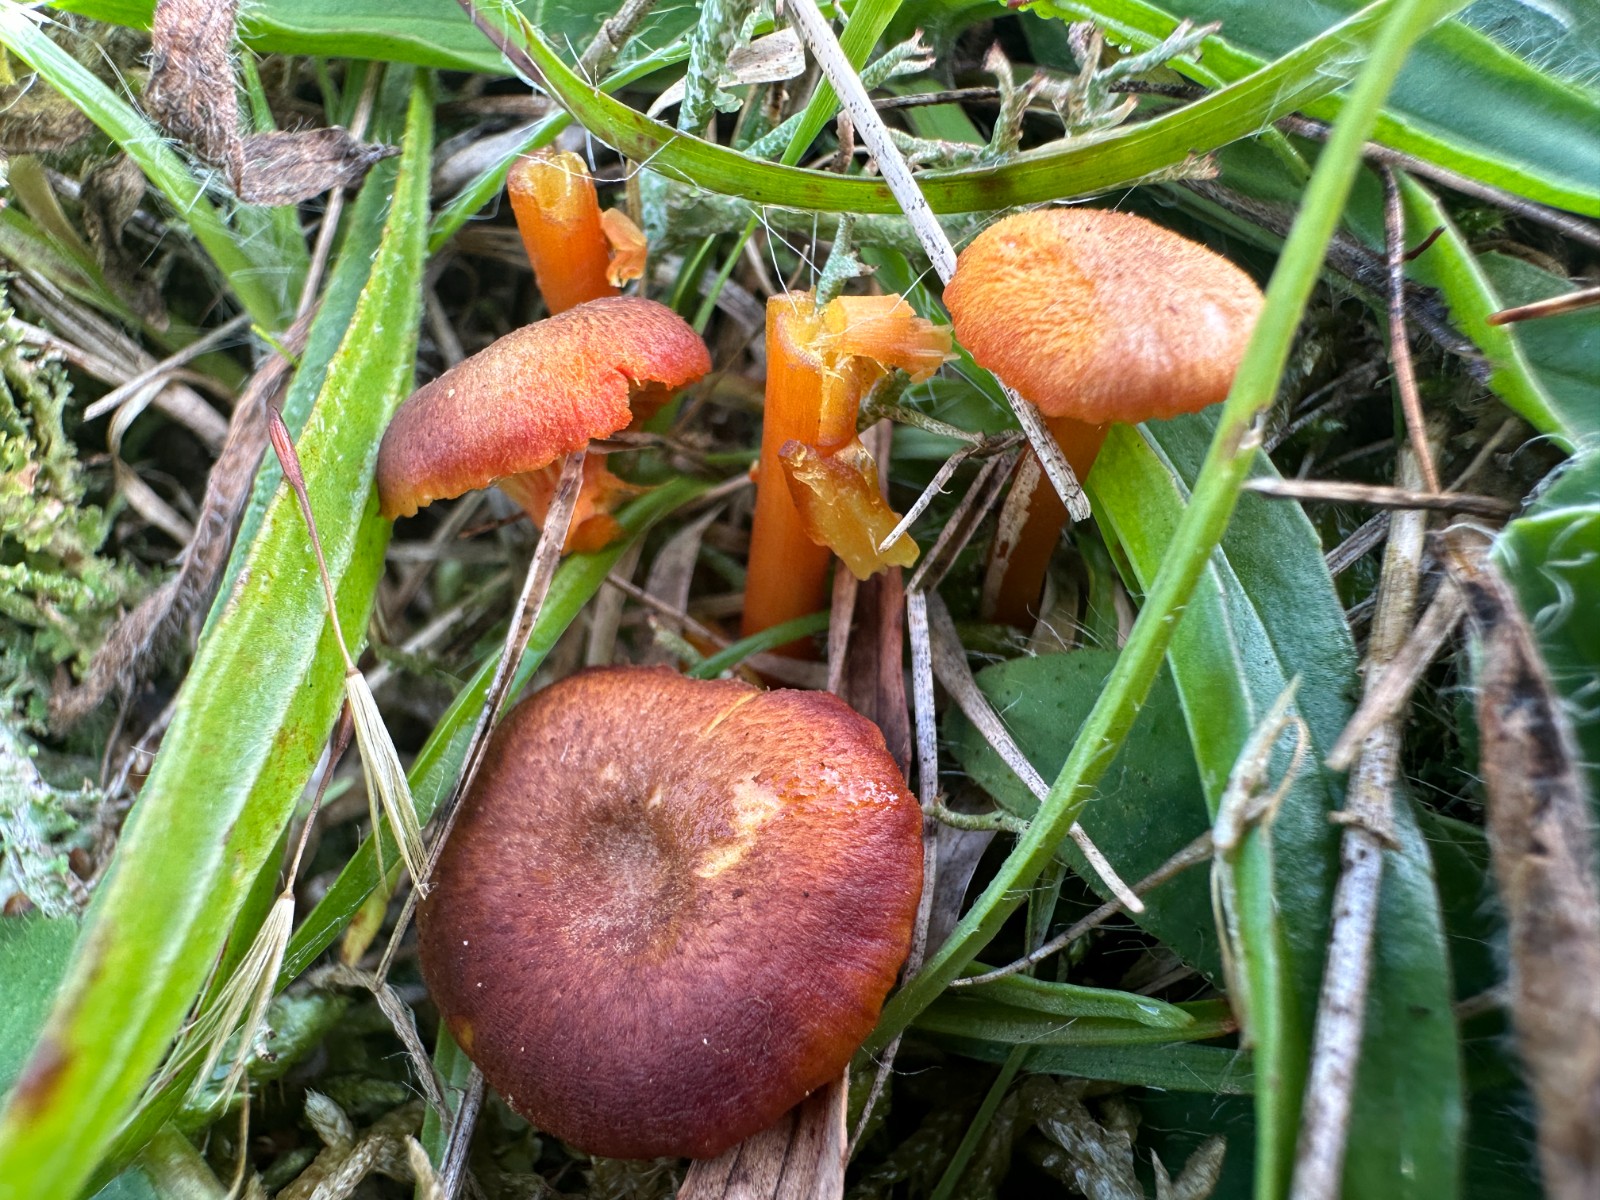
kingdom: Fungi
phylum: Basidiomycota
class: Agaricomycetes
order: Agaricales
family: Hygrophoraceae
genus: Hygrocybe
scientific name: Hygrocybe turunda
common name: sortskællet vokshat
